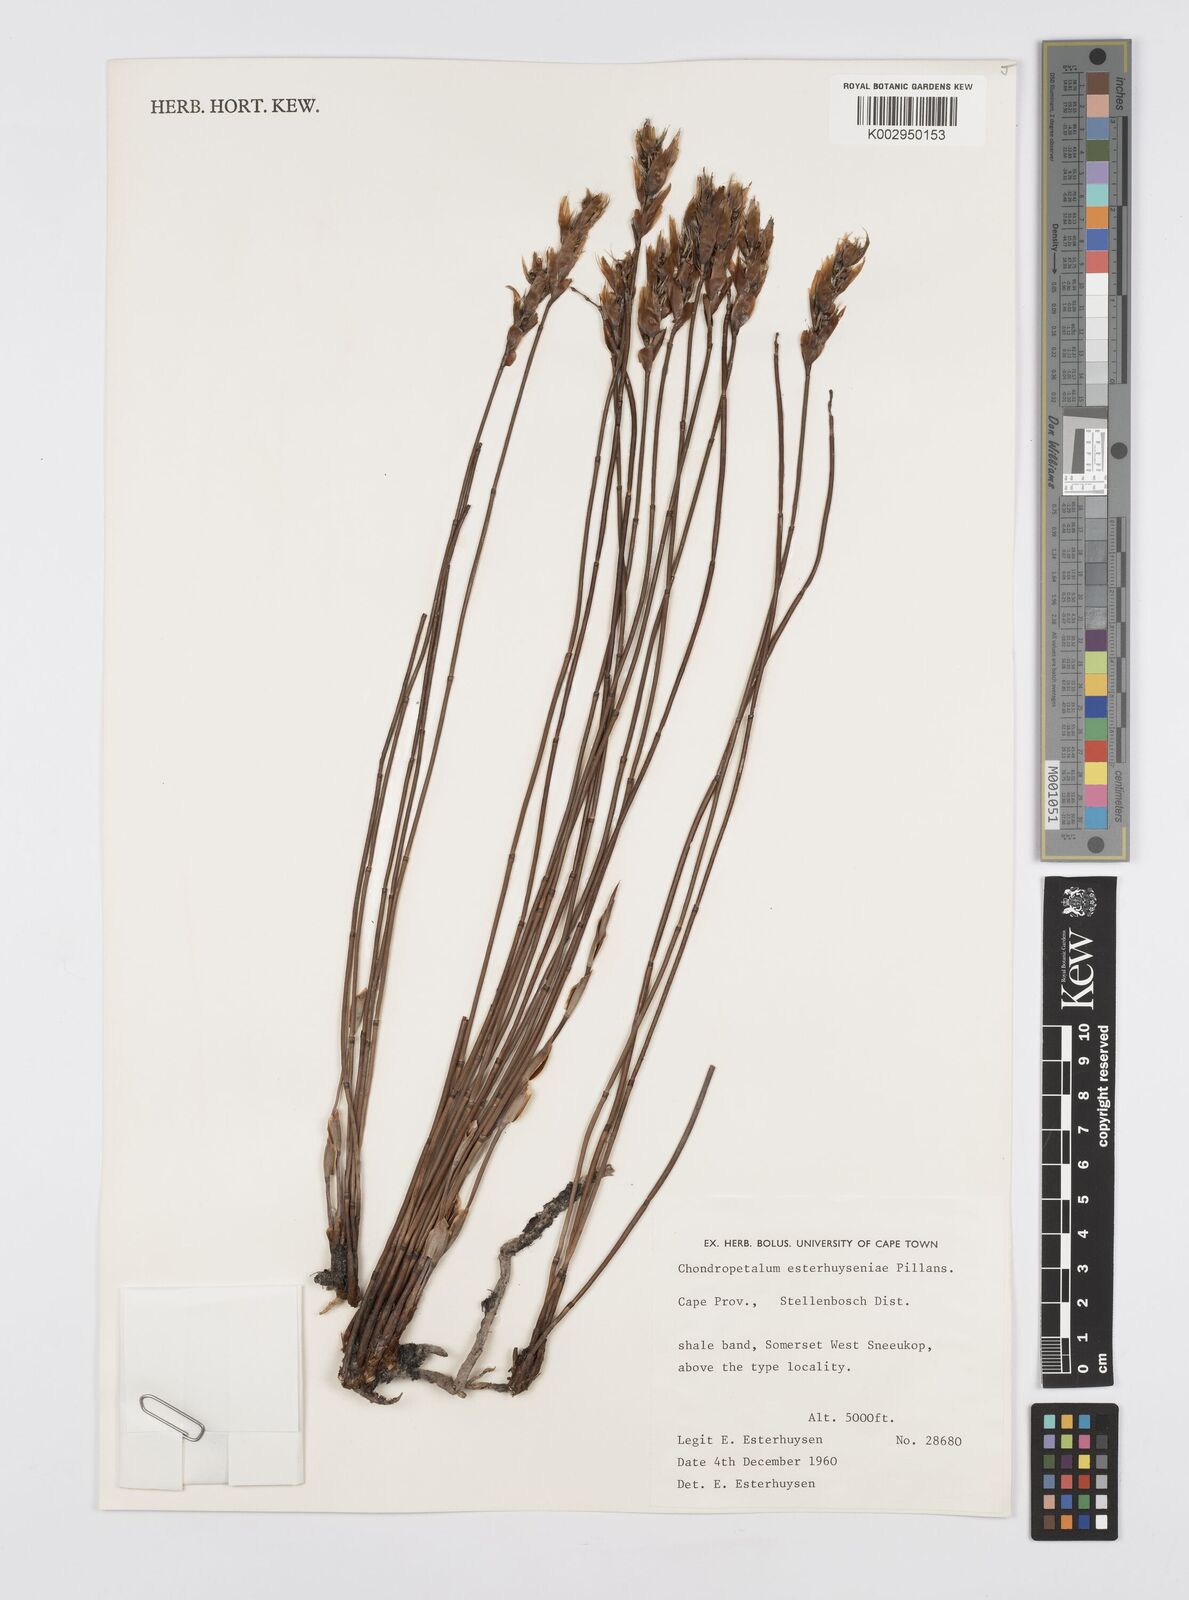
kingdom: Plantae
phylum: Tracheophyta
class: Liliopsida
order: Poales
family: Restionaceae
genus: Askidiosperma
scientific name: Askidiosperma esterhuyseniae
